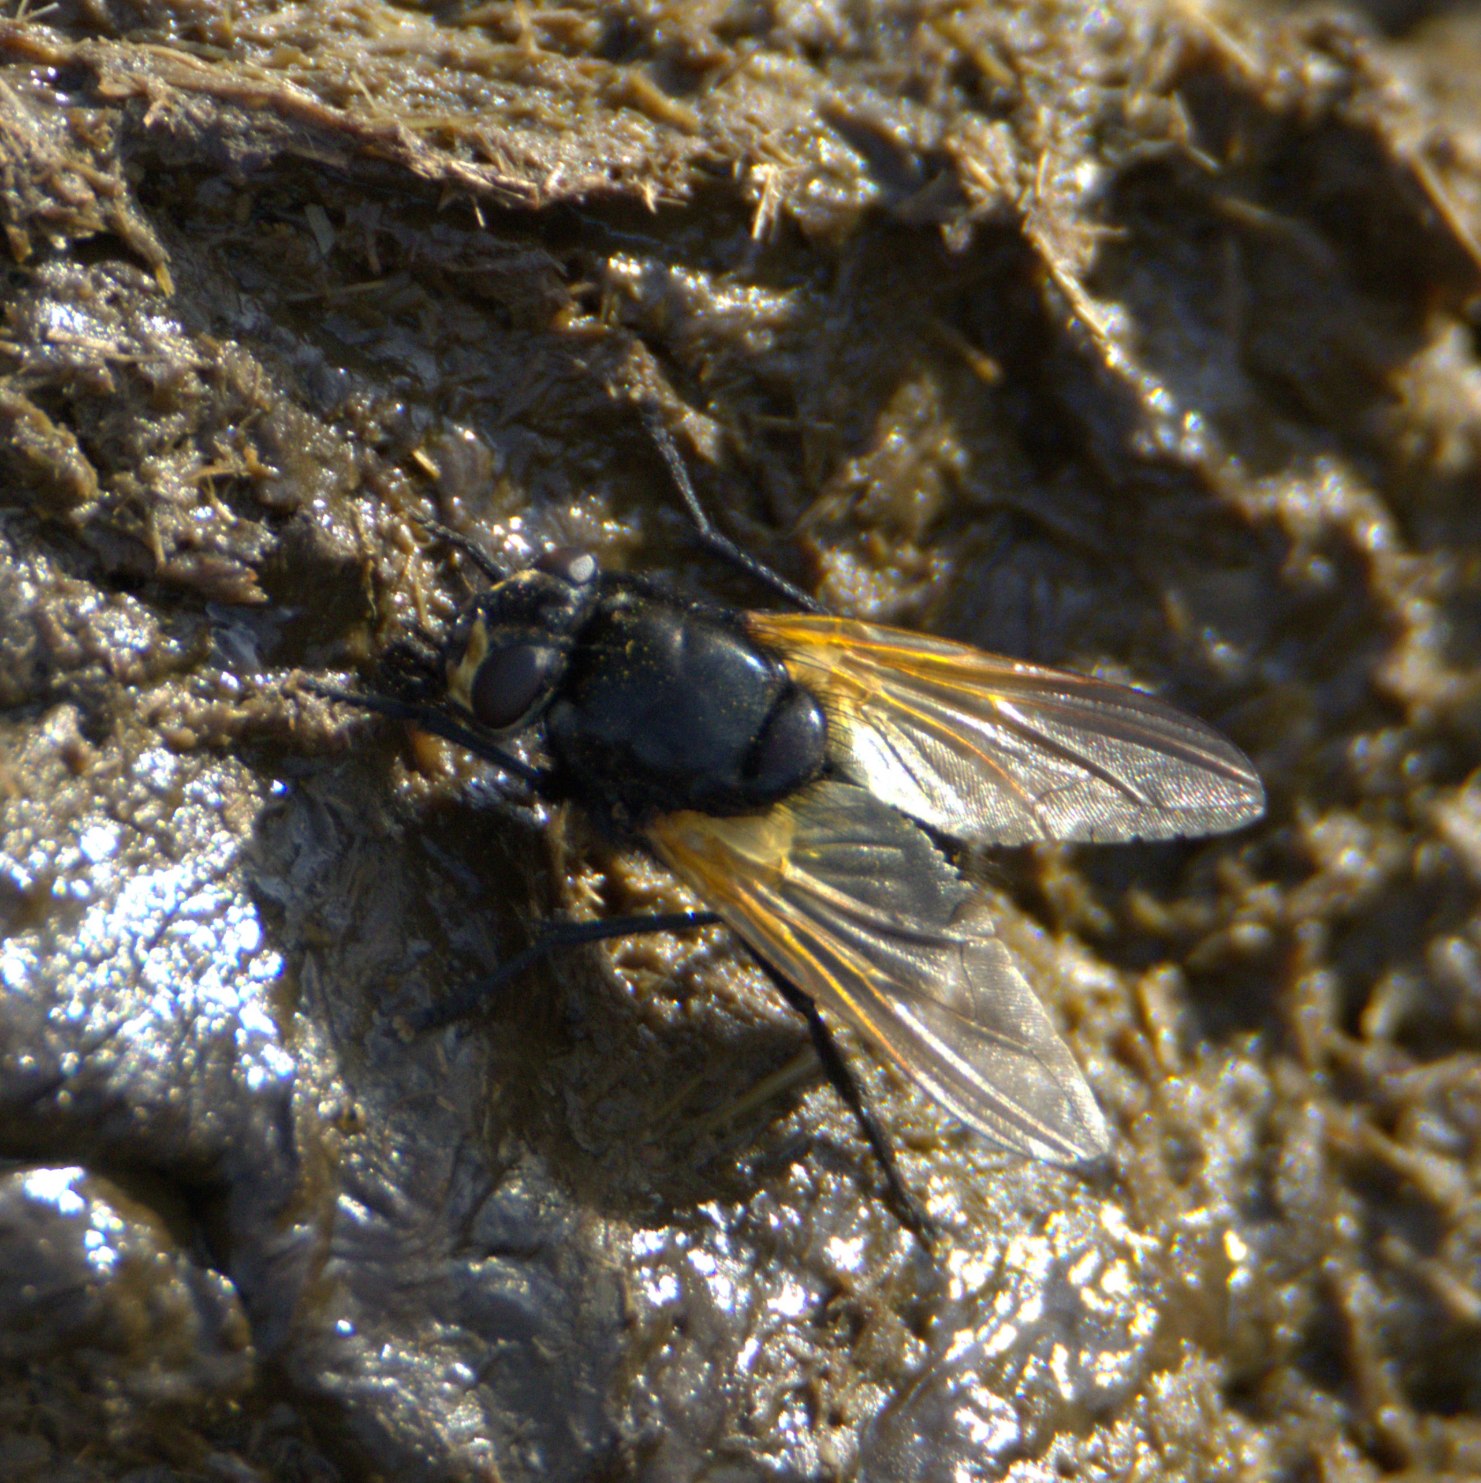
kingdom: Animalia
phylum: Arthropoda
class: Insecta
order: Diptera
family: Muscidae
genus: Mesembrina
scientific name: Mesembrina meridiana
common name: Gulvinget flue
